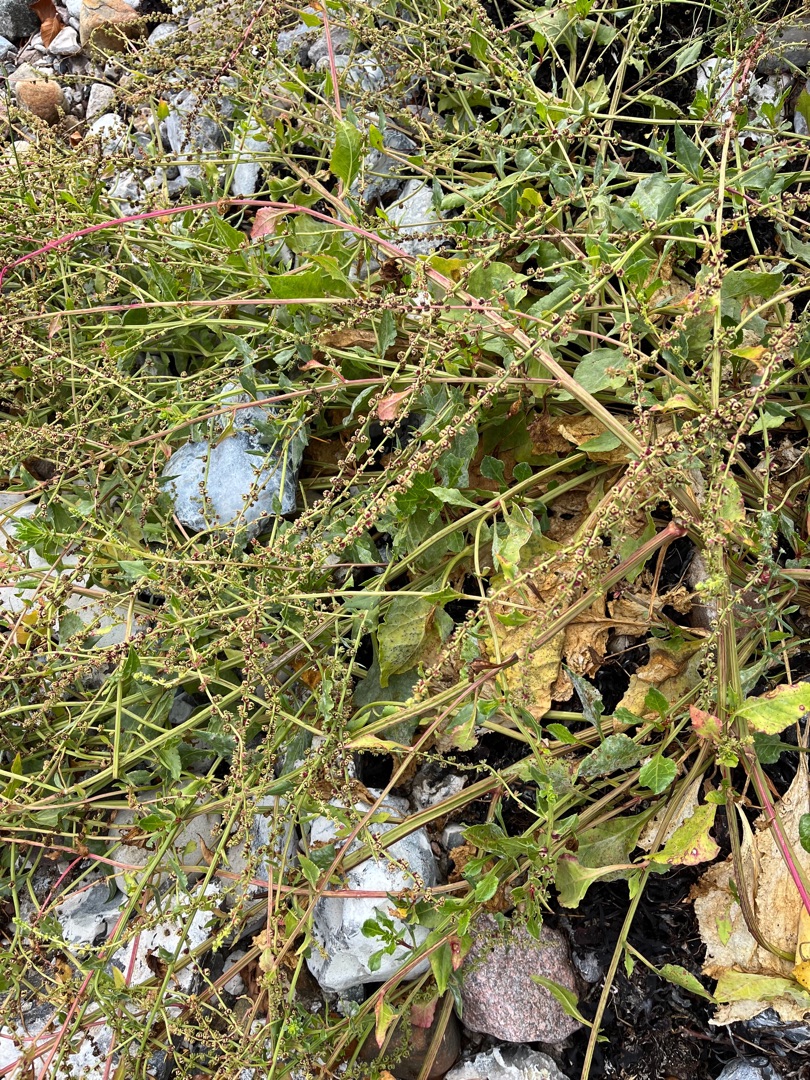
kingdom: Plantae
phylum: Tracheophyta
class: Magnoliopsida
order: Caryophyllales
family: Amaranthaceae
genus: Beta
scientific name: Beta maritima
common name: Strand-bede
